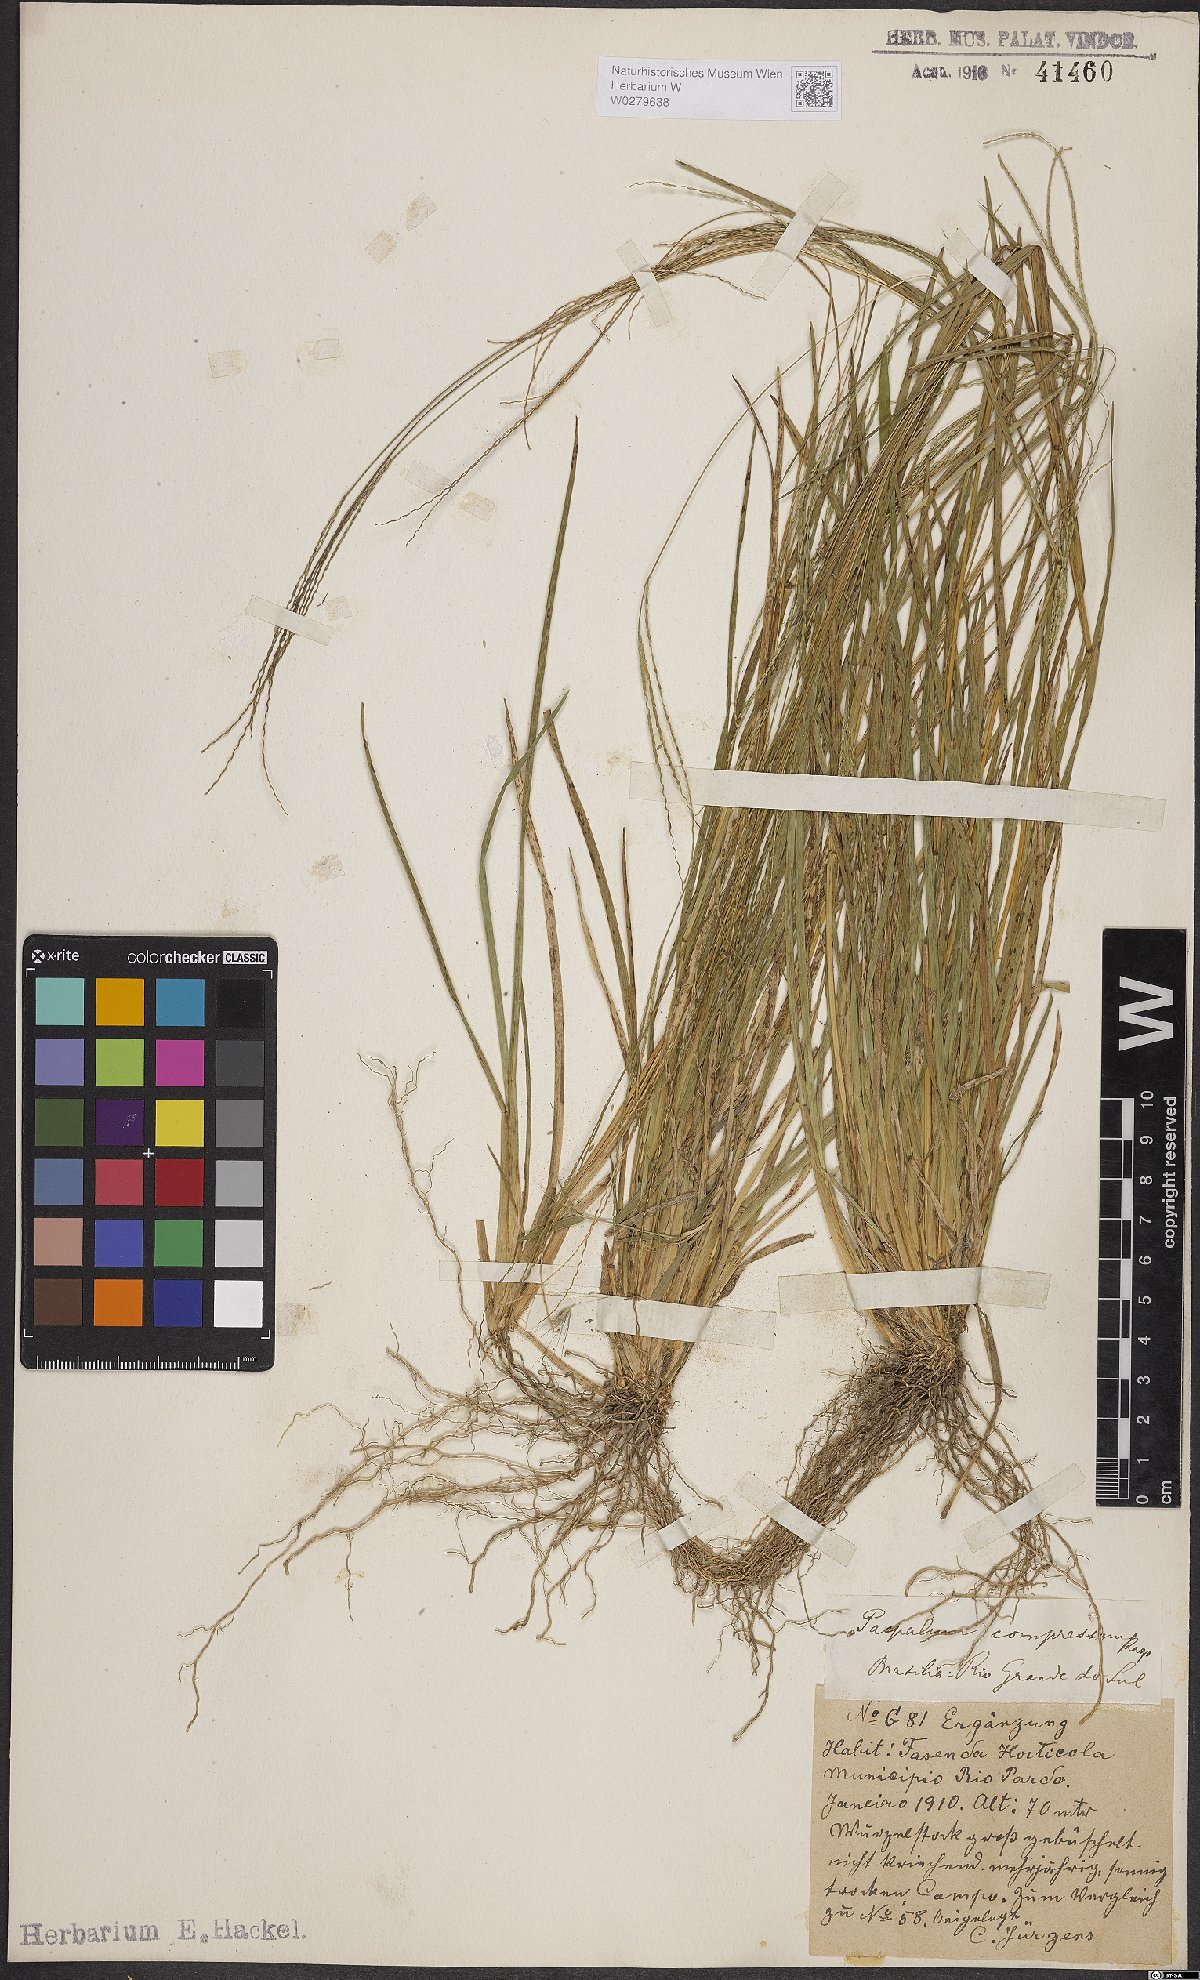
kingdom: Plantae
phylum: Tracheophyta
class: Liliopsida
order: Poales
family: Poaceae
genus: Axonopus
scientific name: Axonopus compressus
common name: American carpet grass
